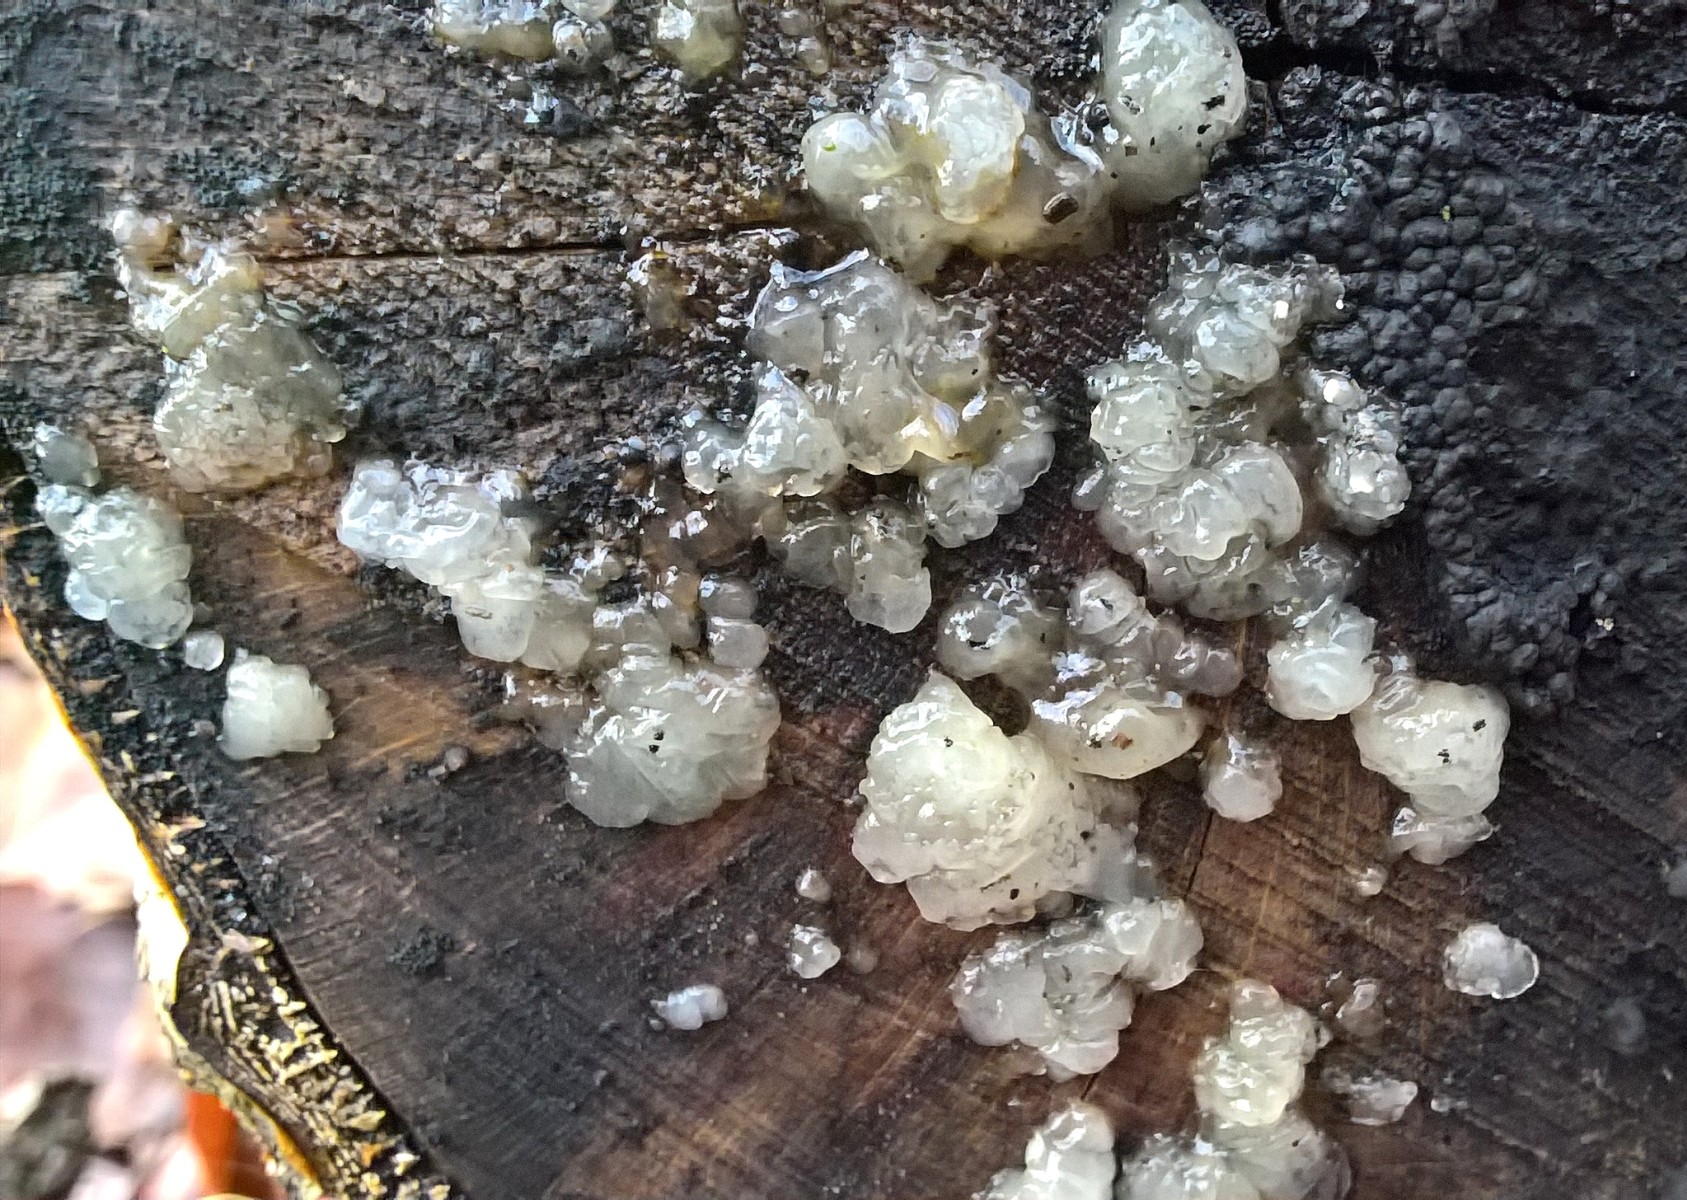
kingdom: Fungi
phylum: Basidiomycota
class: Agaricomycetes
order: Auriculariales
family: Hyaloriaceae
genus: Myxarium
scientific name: Myxarium nucleatum
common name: klar bævretop
